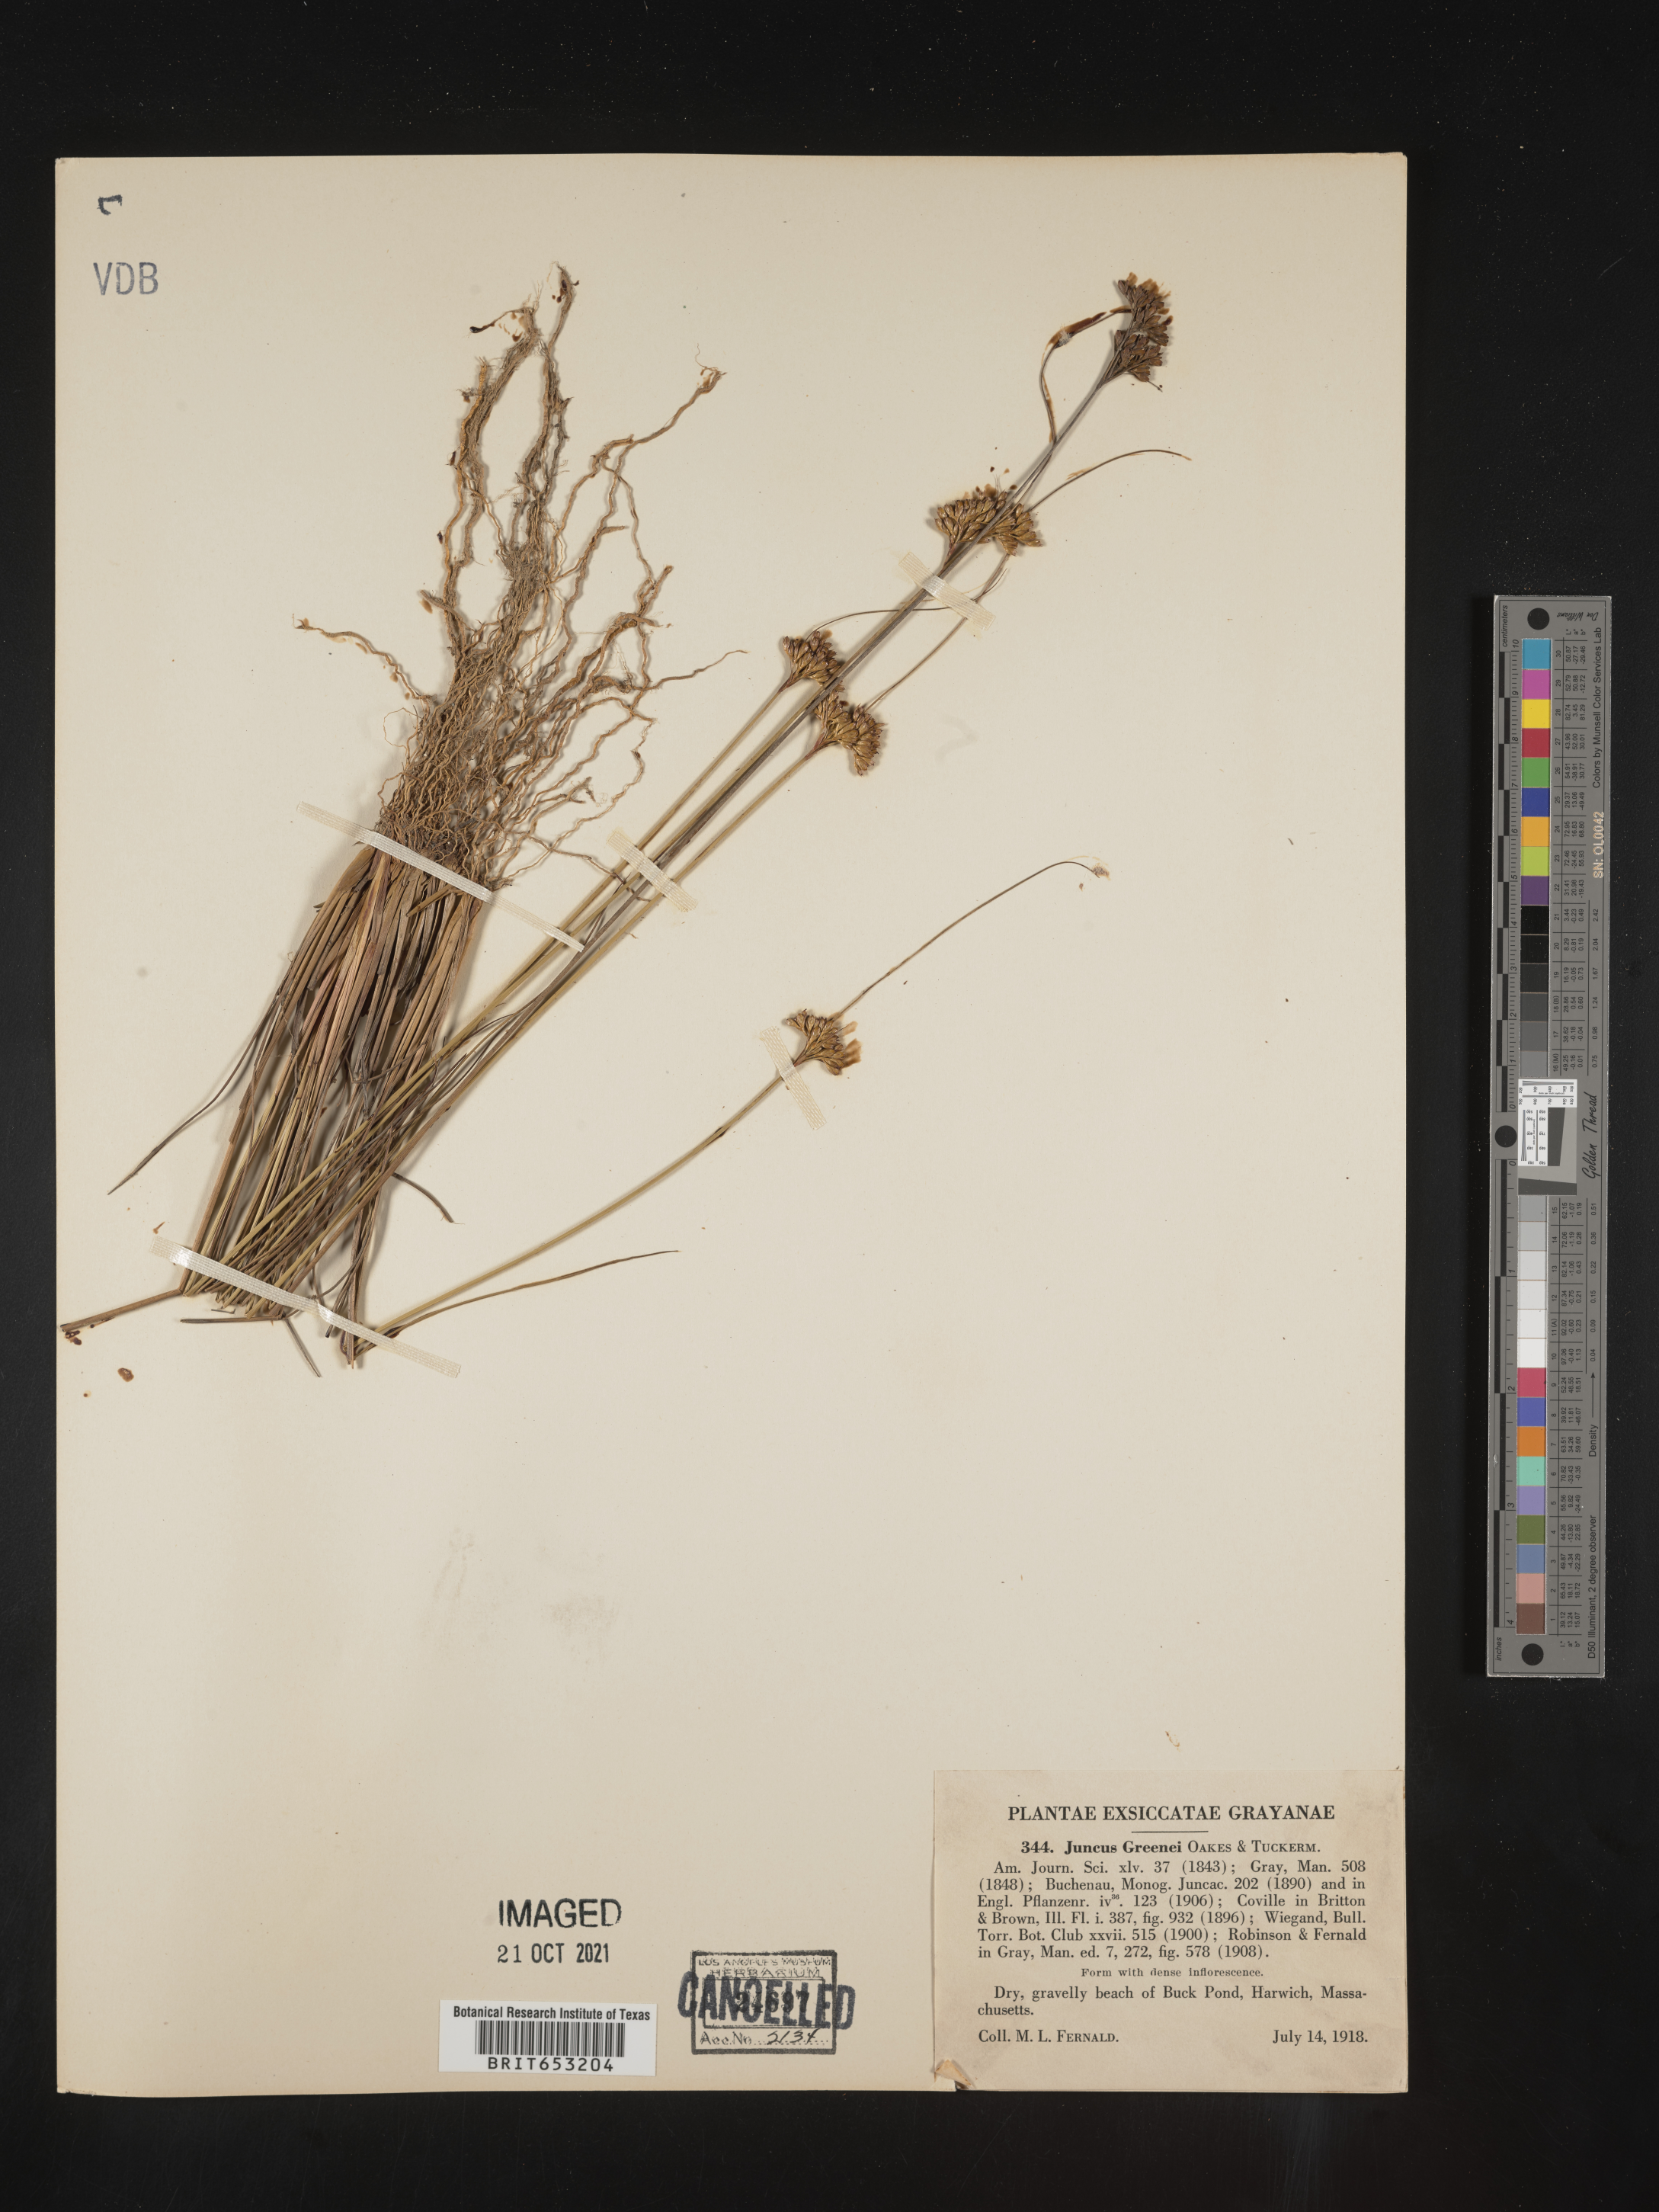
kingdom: Plantae
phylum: Tracheophyta
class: Liliopsida
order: Poales
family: Juncaceae
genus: Juncus
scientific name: Juncus greenei
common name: Greene's rush
